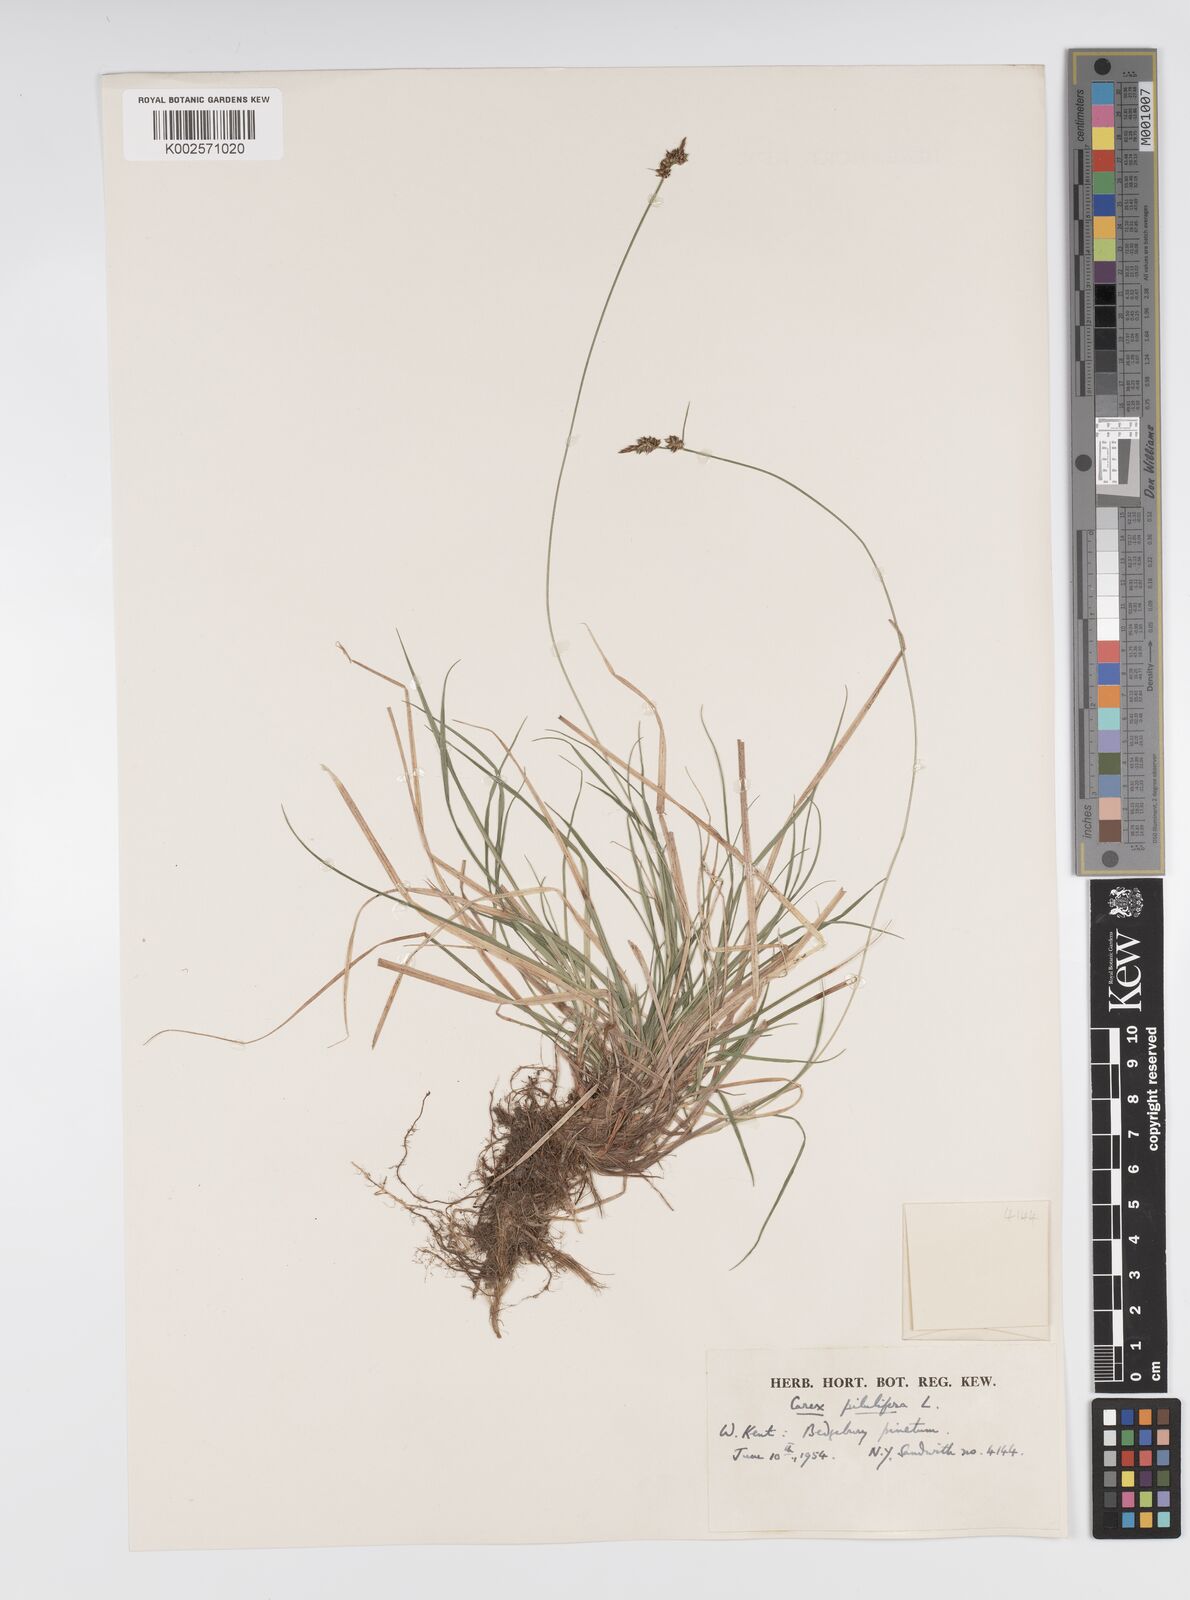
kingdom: Plantae
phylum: Tracheophyta
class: Liliopsida
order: Poales
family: Cyperaceae
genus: Carex
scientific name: Carex praecox
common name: Early sedge
